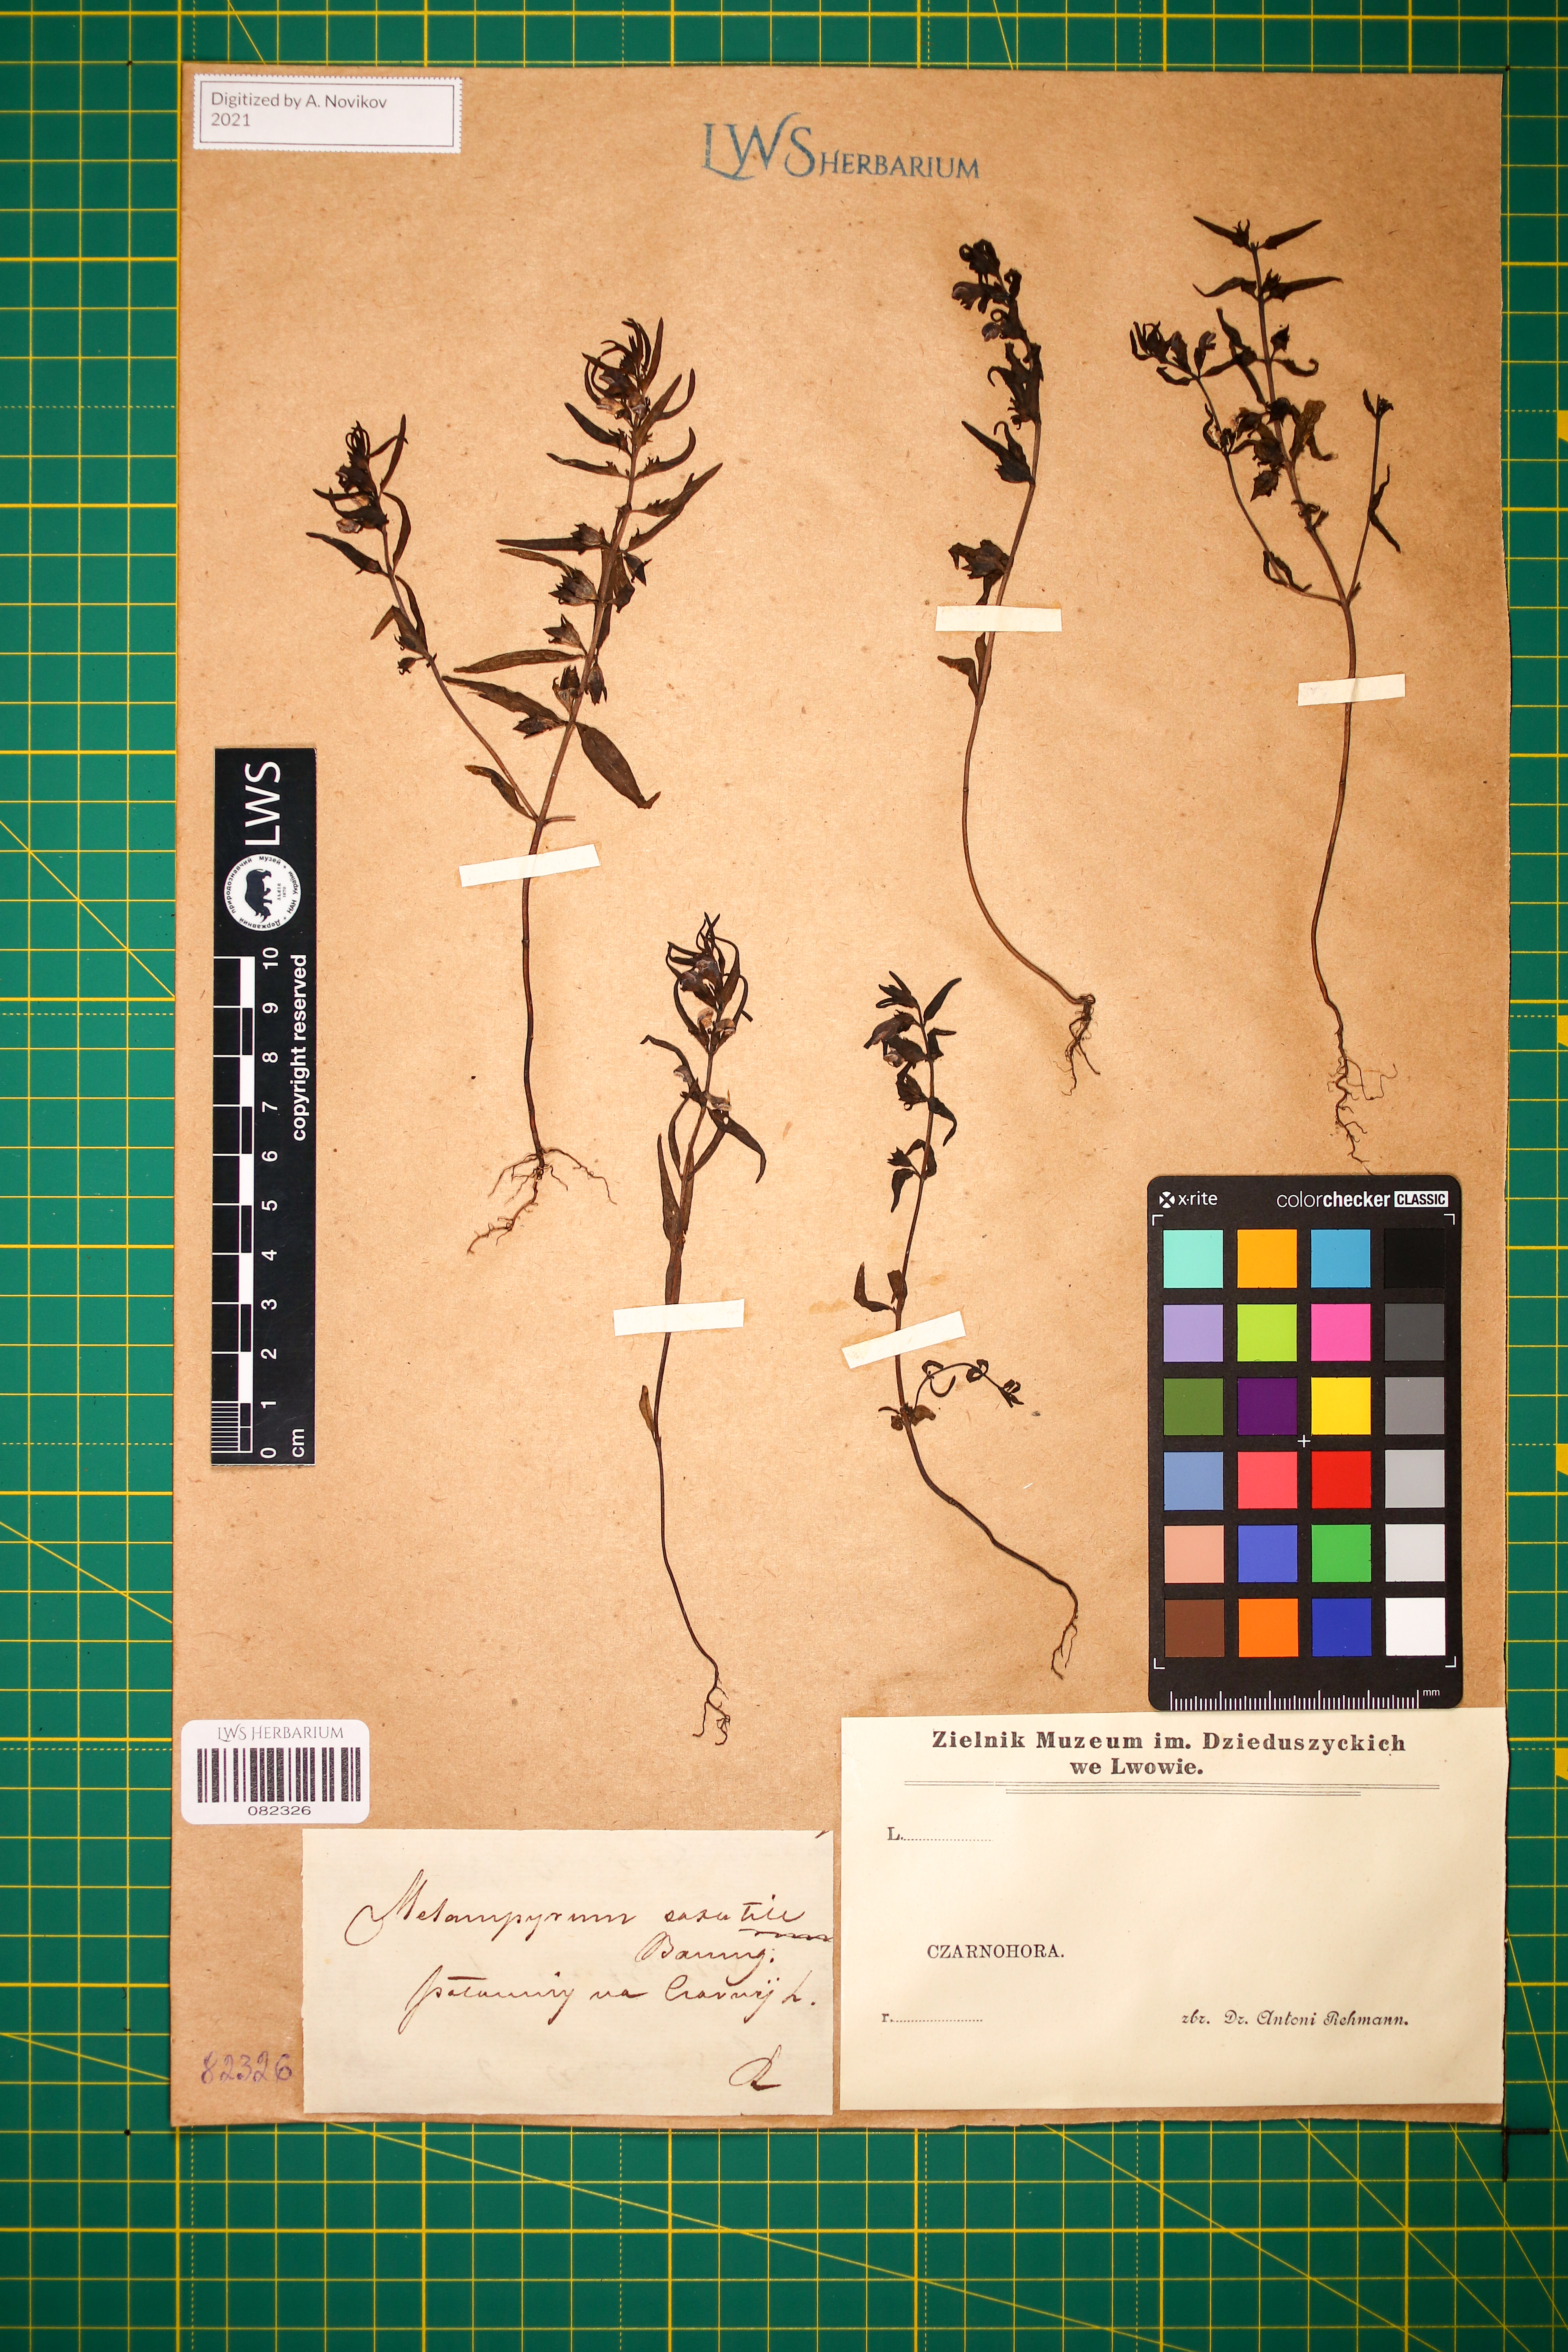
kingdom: Plantae
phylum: Tracheophyta
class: Magnoliopsida
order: Lamiales
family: Orobanchaceae
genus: Melampyrum
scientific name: Melampyrum saxosum
